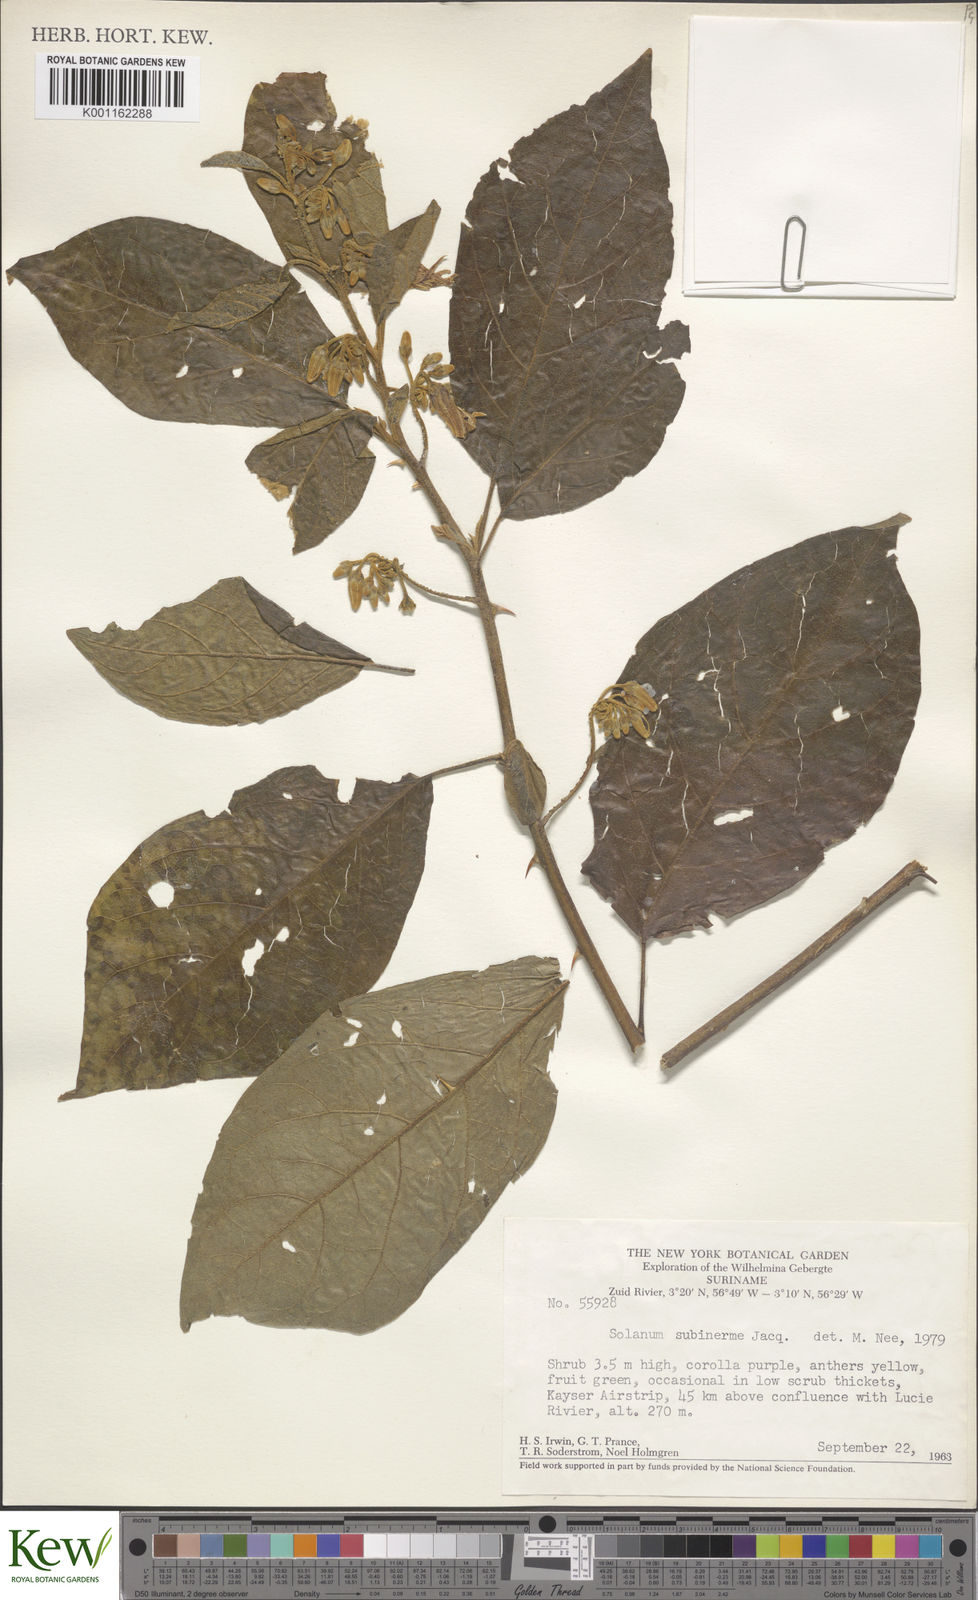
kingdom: Plantae
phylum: Tracheophyta
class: Magnoliopsida
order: Solanales
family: Solanaceae
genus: Solanum
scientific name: Solanum subinerme
